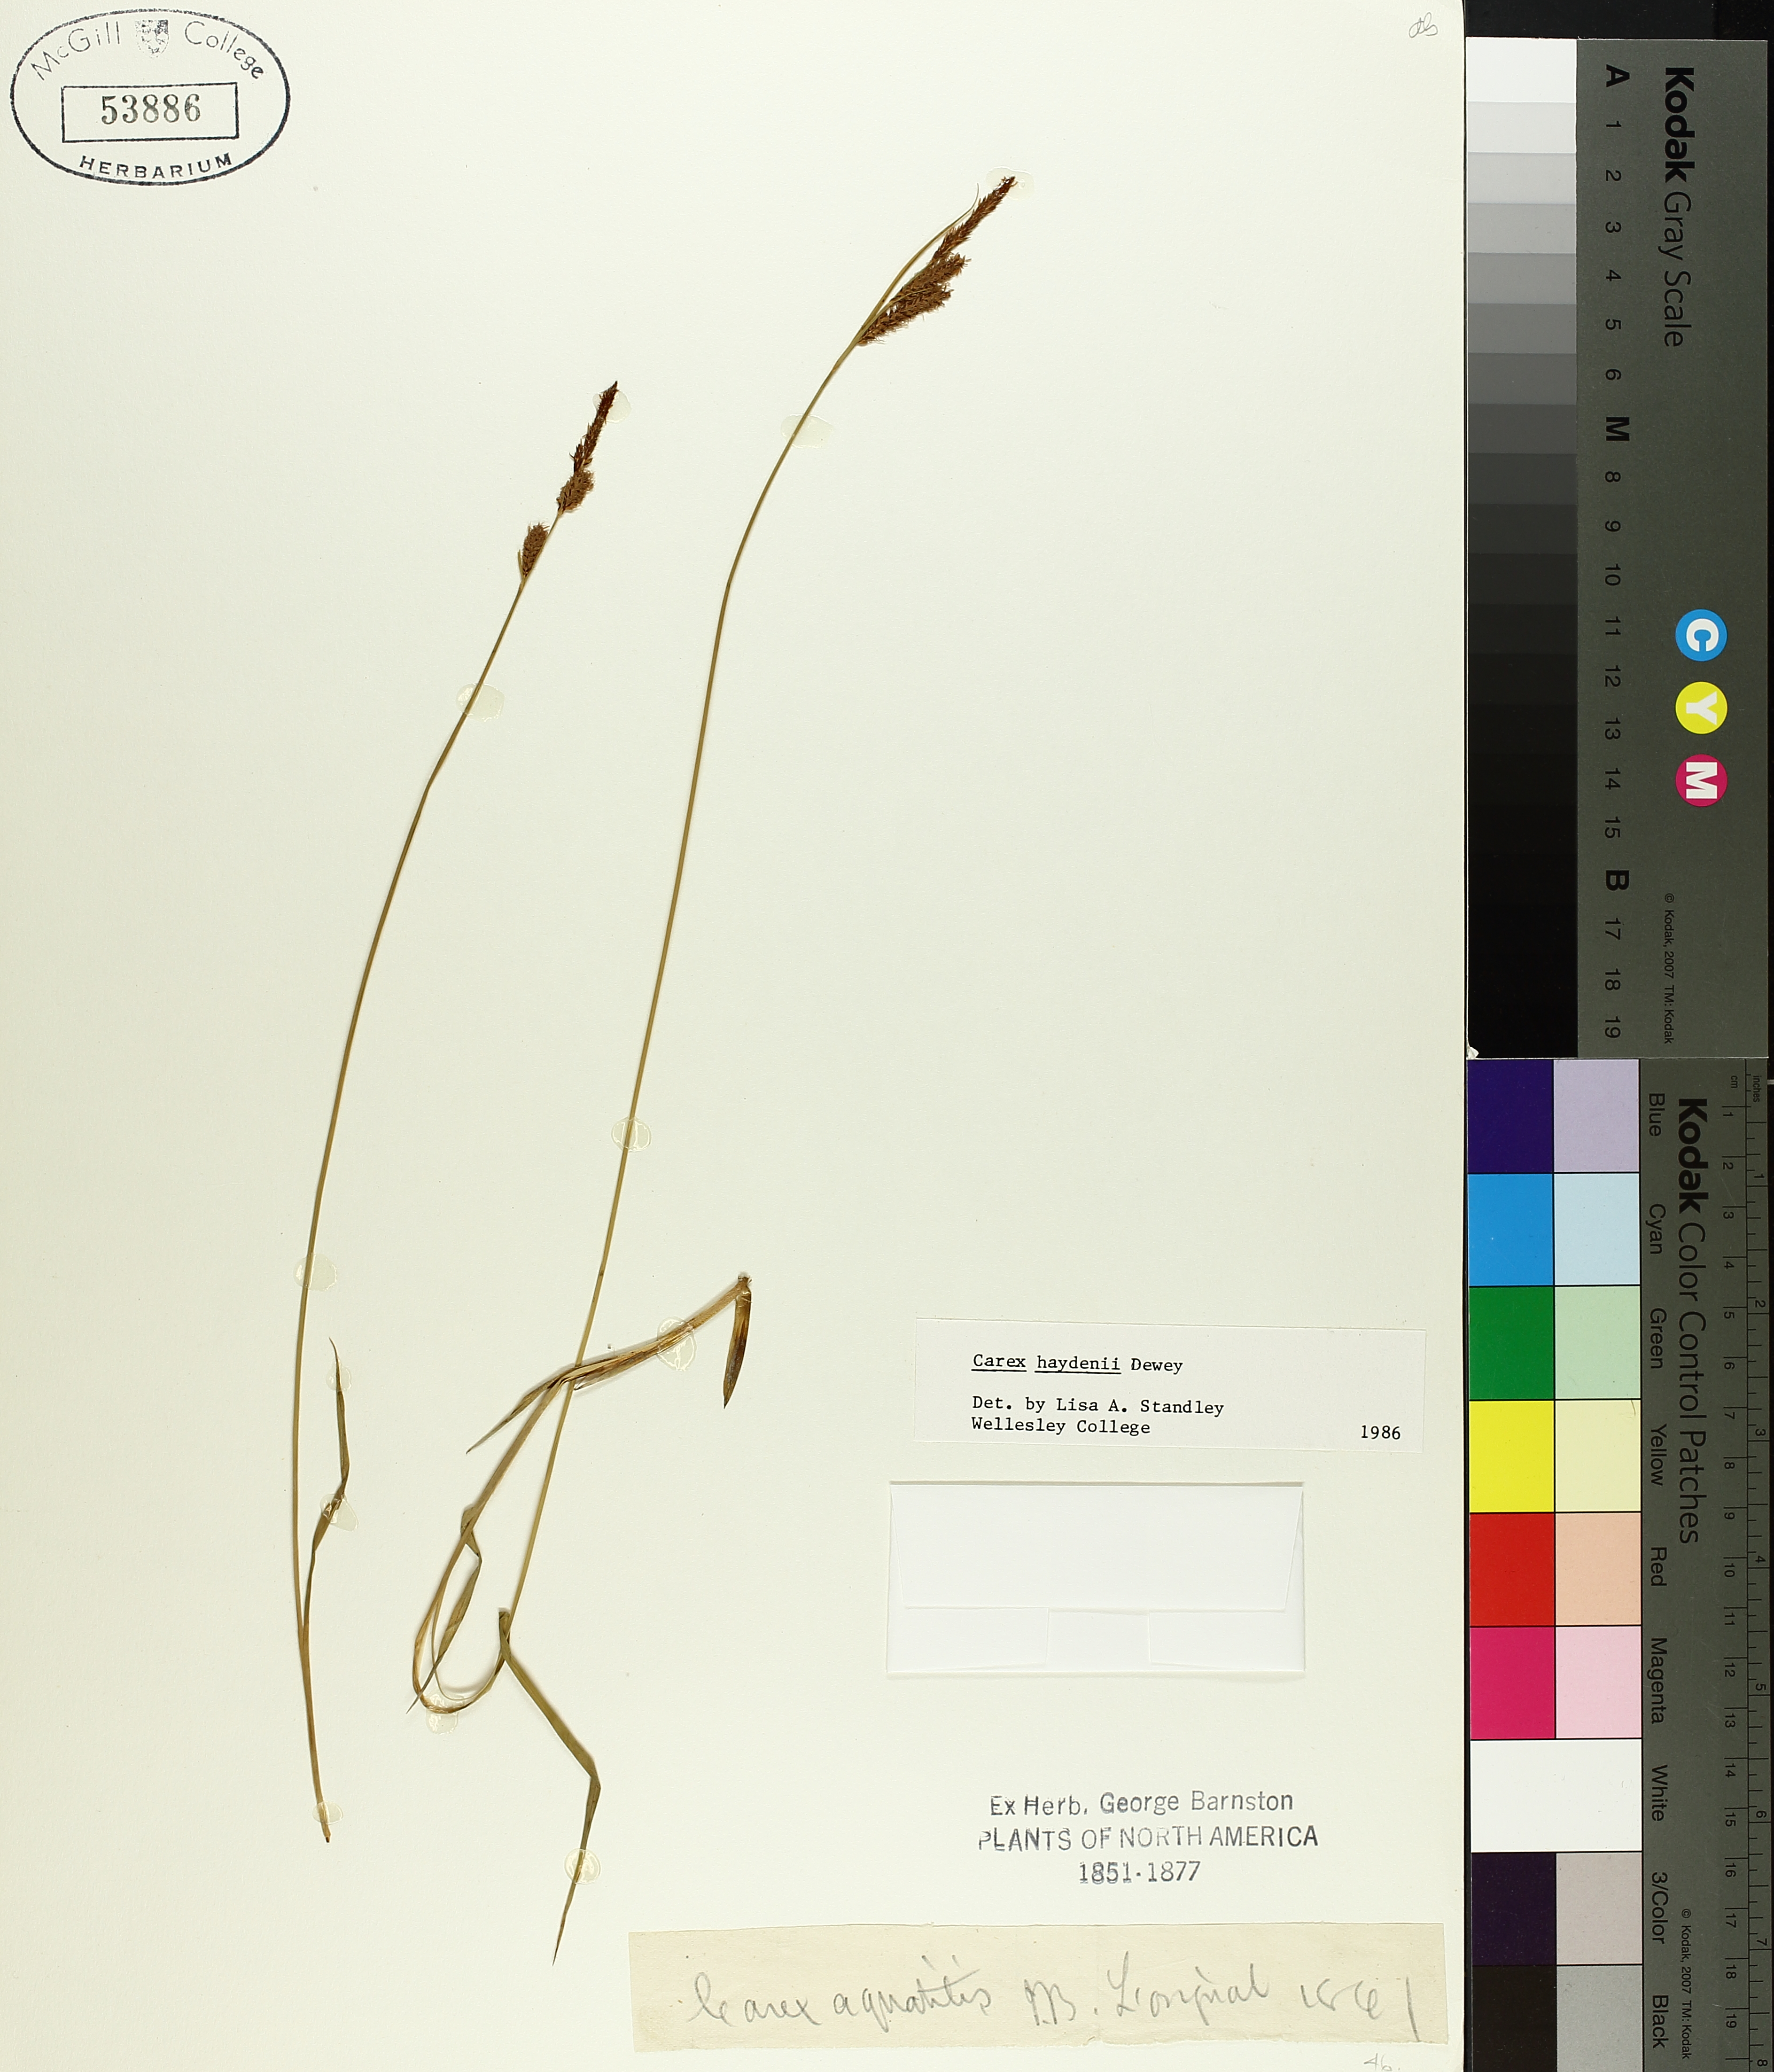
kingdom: Plantae
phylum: Tracheophyta
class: Liliopsida
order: Poales
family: Cyperaceae
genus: Carex
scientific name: Carex haydenii
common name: Hayden's sedge
